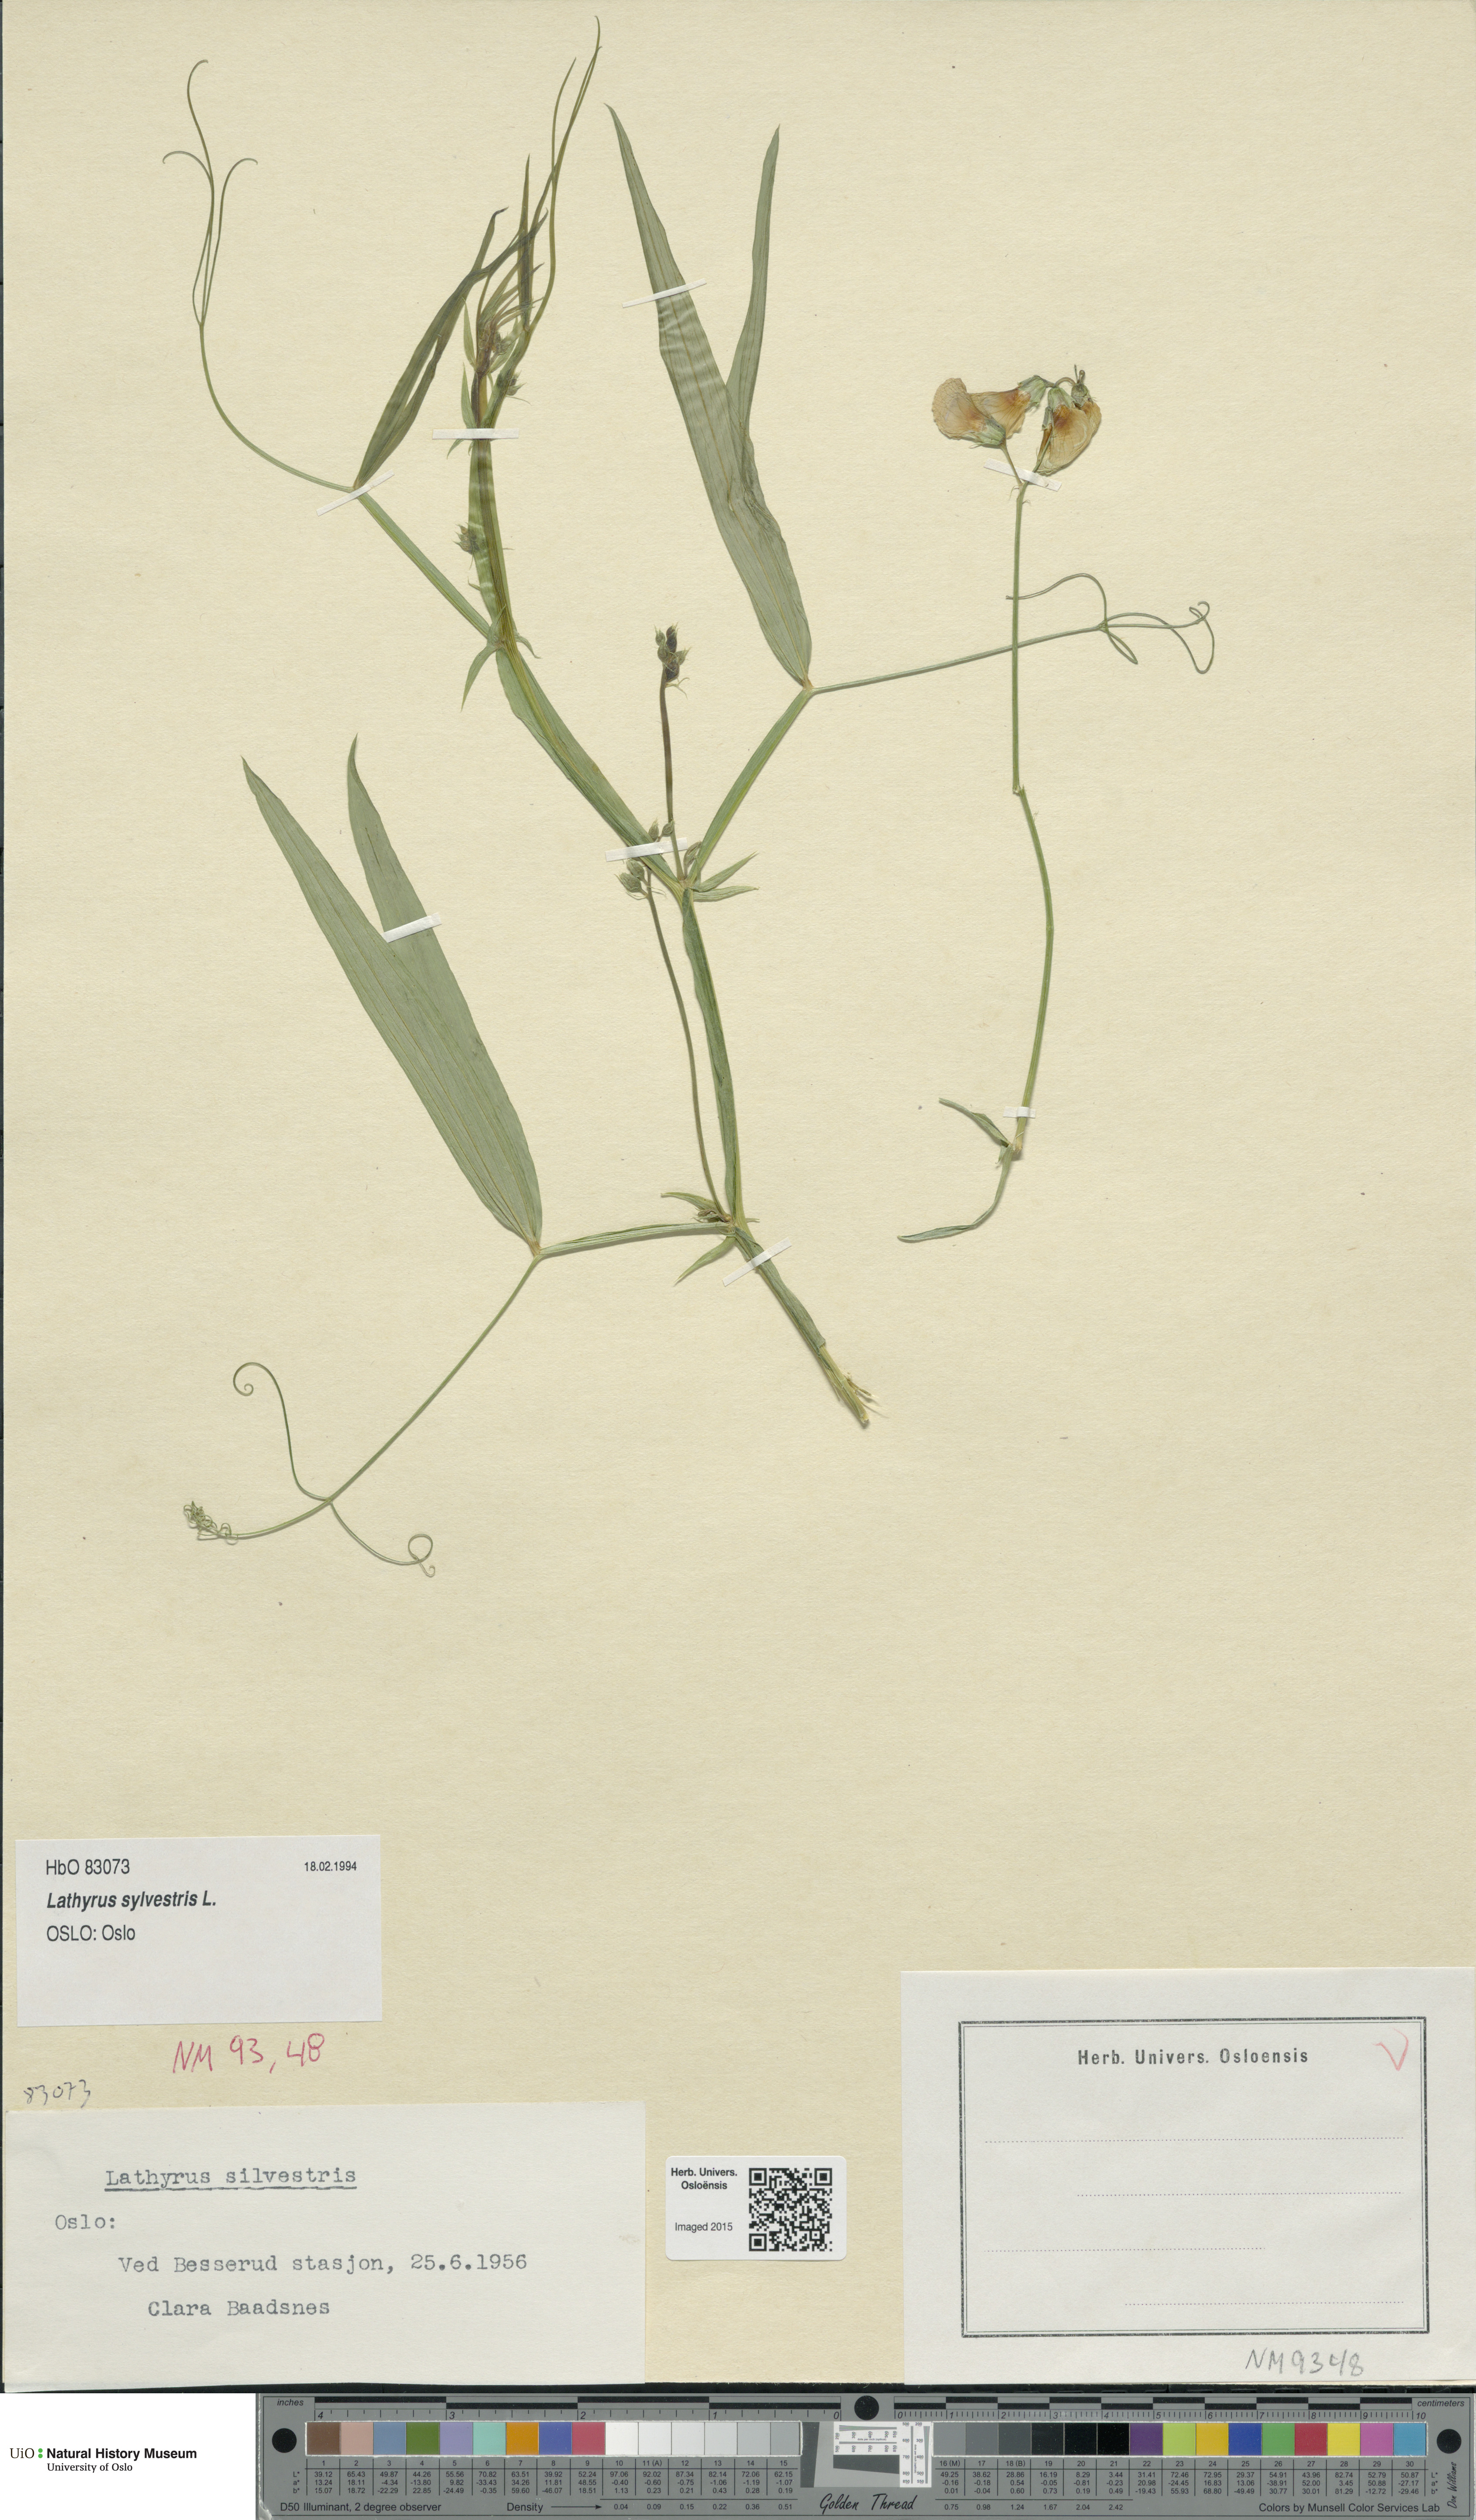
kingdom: Plantae
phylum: Tracheophyta
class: Magnoliopsida
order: Fabales
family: Fabaceae
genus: Lathyrus
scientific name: Lathyrus sylvestris
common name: Flat pea
